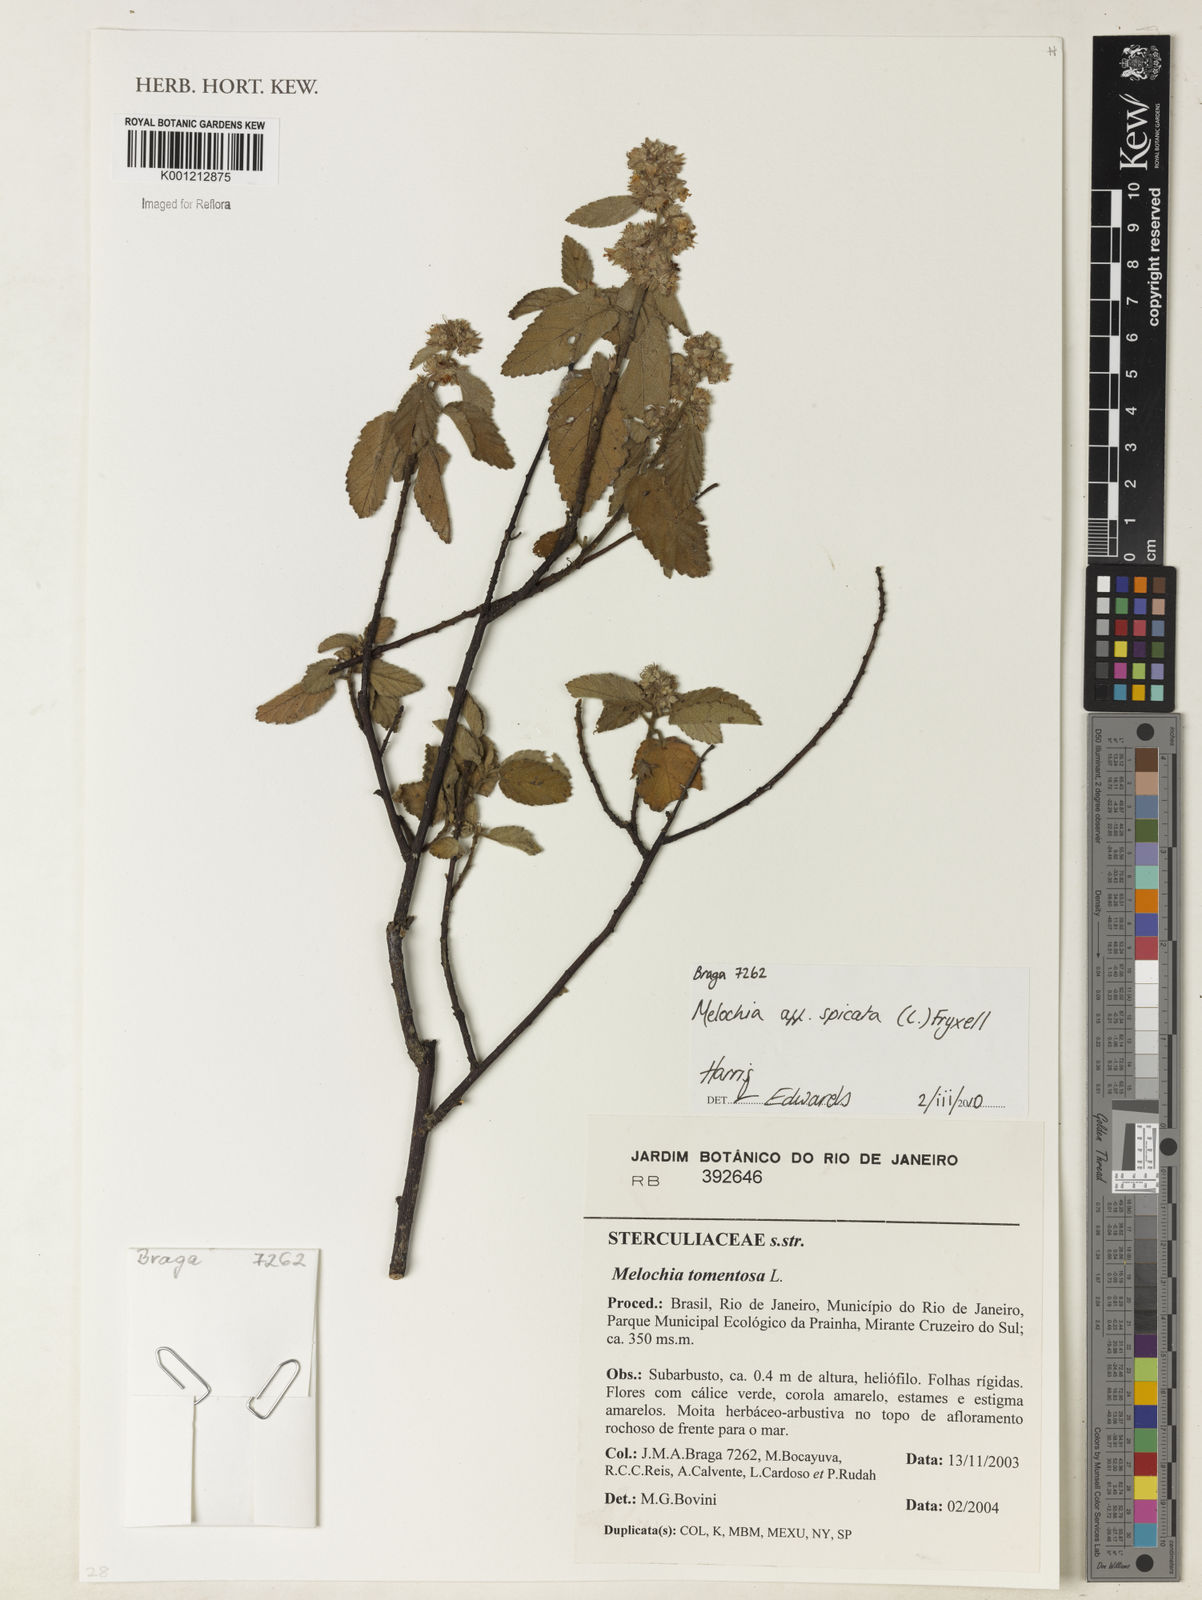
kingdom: Plantae
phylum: Tracheophyta
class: Magnoliopsida
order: Malvales
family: Malvaceae
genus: Melochia
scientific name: Melochia spicata
